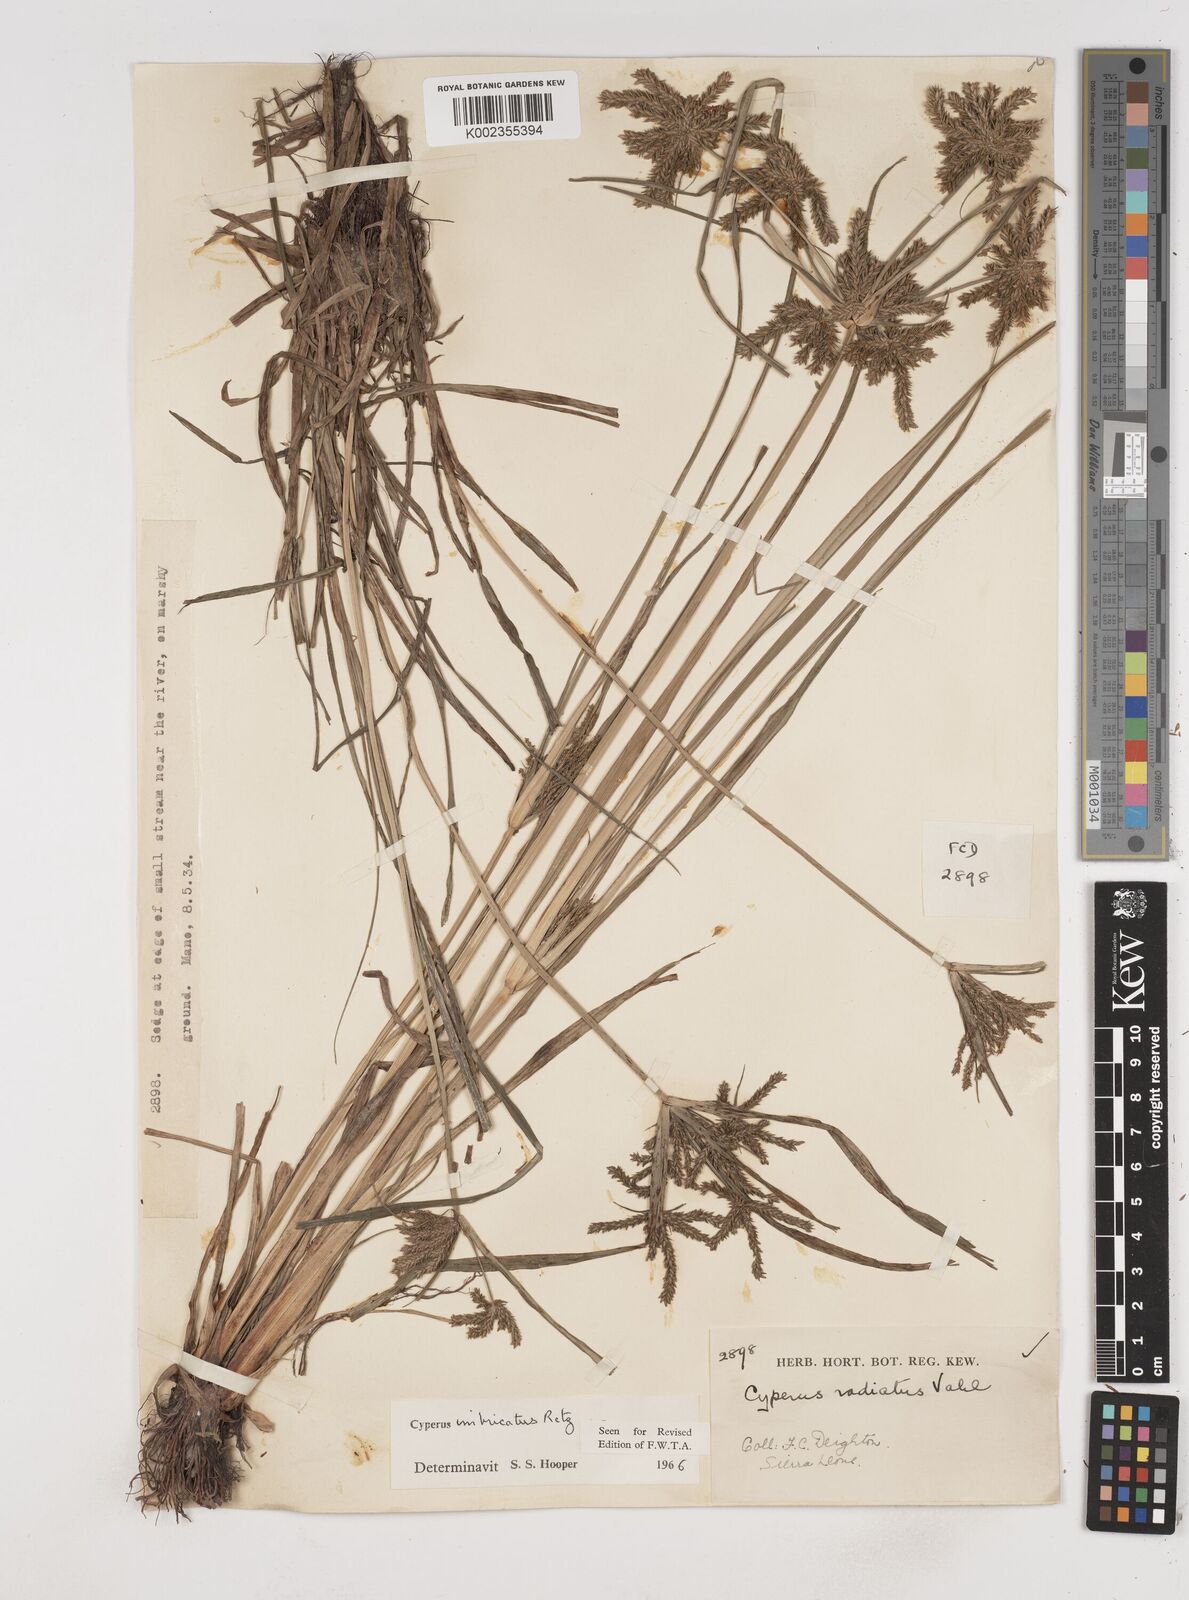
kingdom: Plantae
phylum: Tracheophyta
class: Liliopsida
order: Poales
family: Cyperaceae
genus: Cyperus
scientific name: Cyperus imbricatus
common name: Shingle flatsedge
